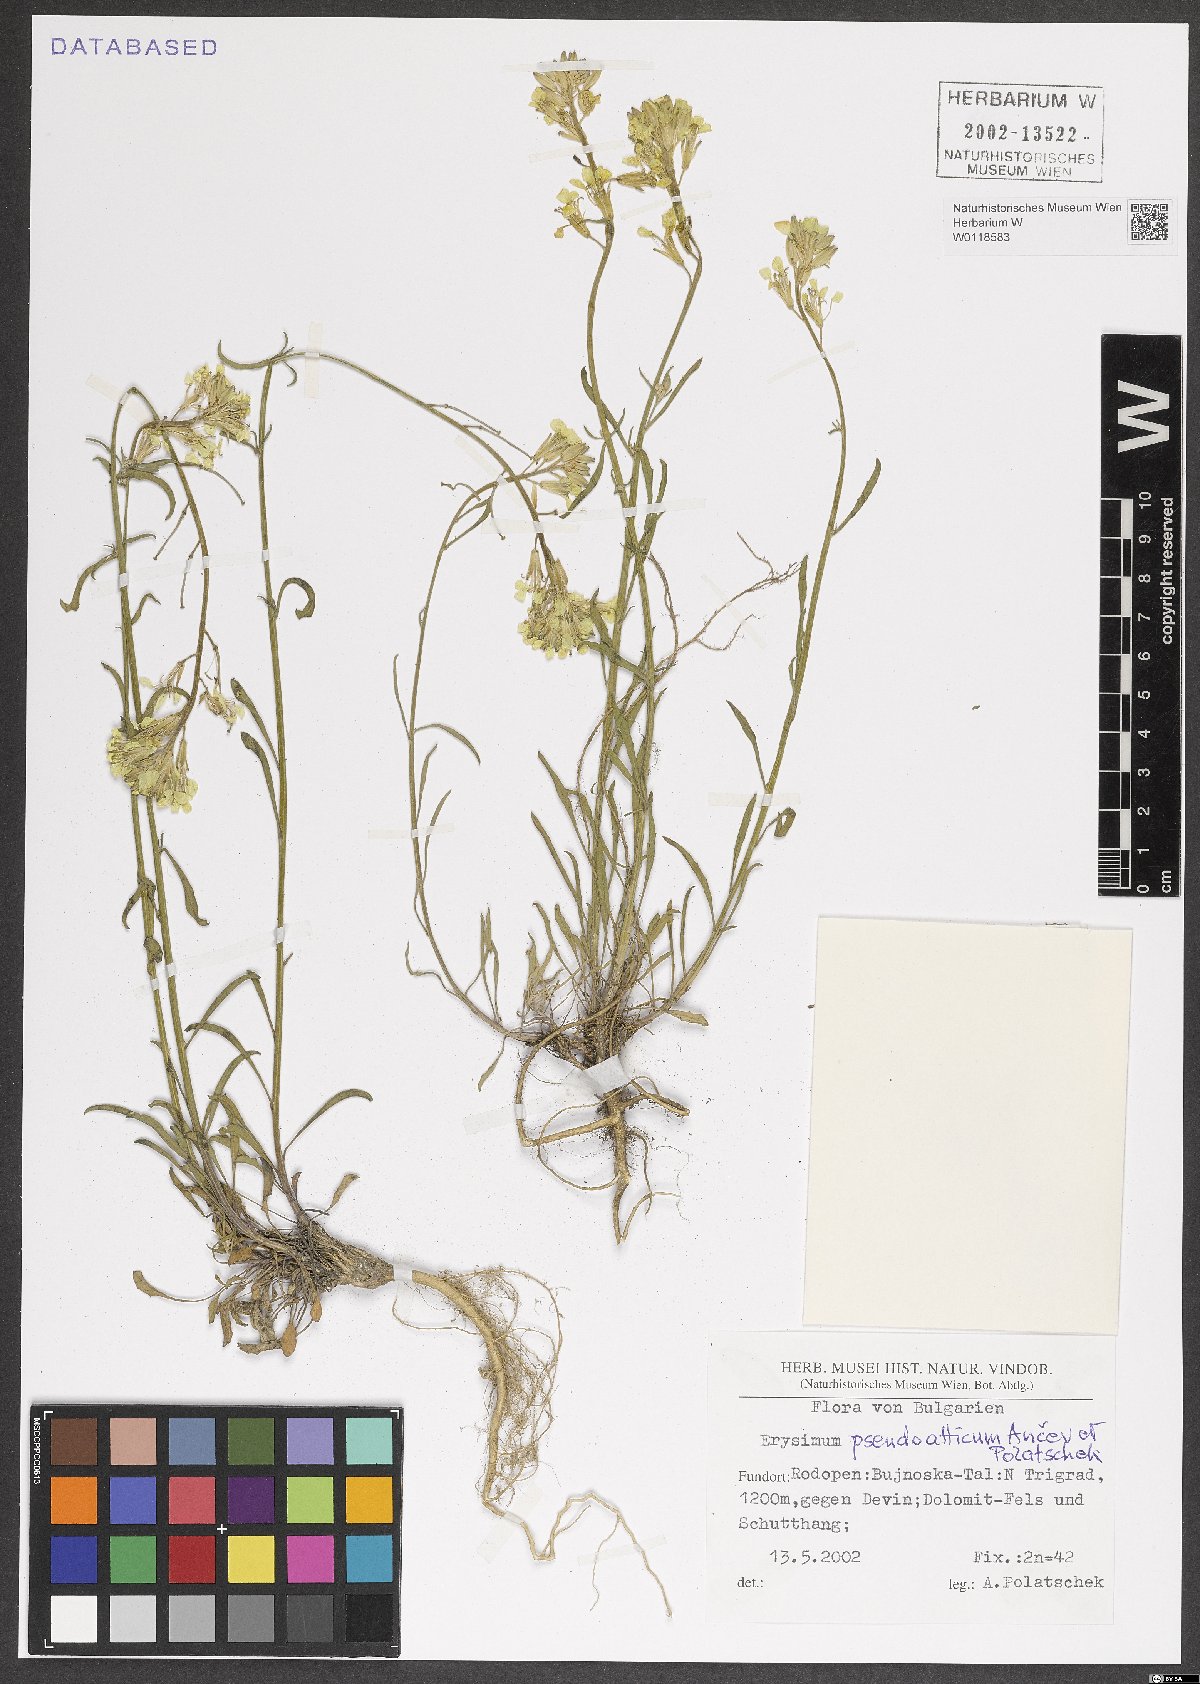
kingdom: Plantae
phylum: Tracheophyta
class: Magnoliopsida
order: Brassicales
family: Brassicaceae
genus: Erysimum
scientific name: Erysimum pseudoatticum
